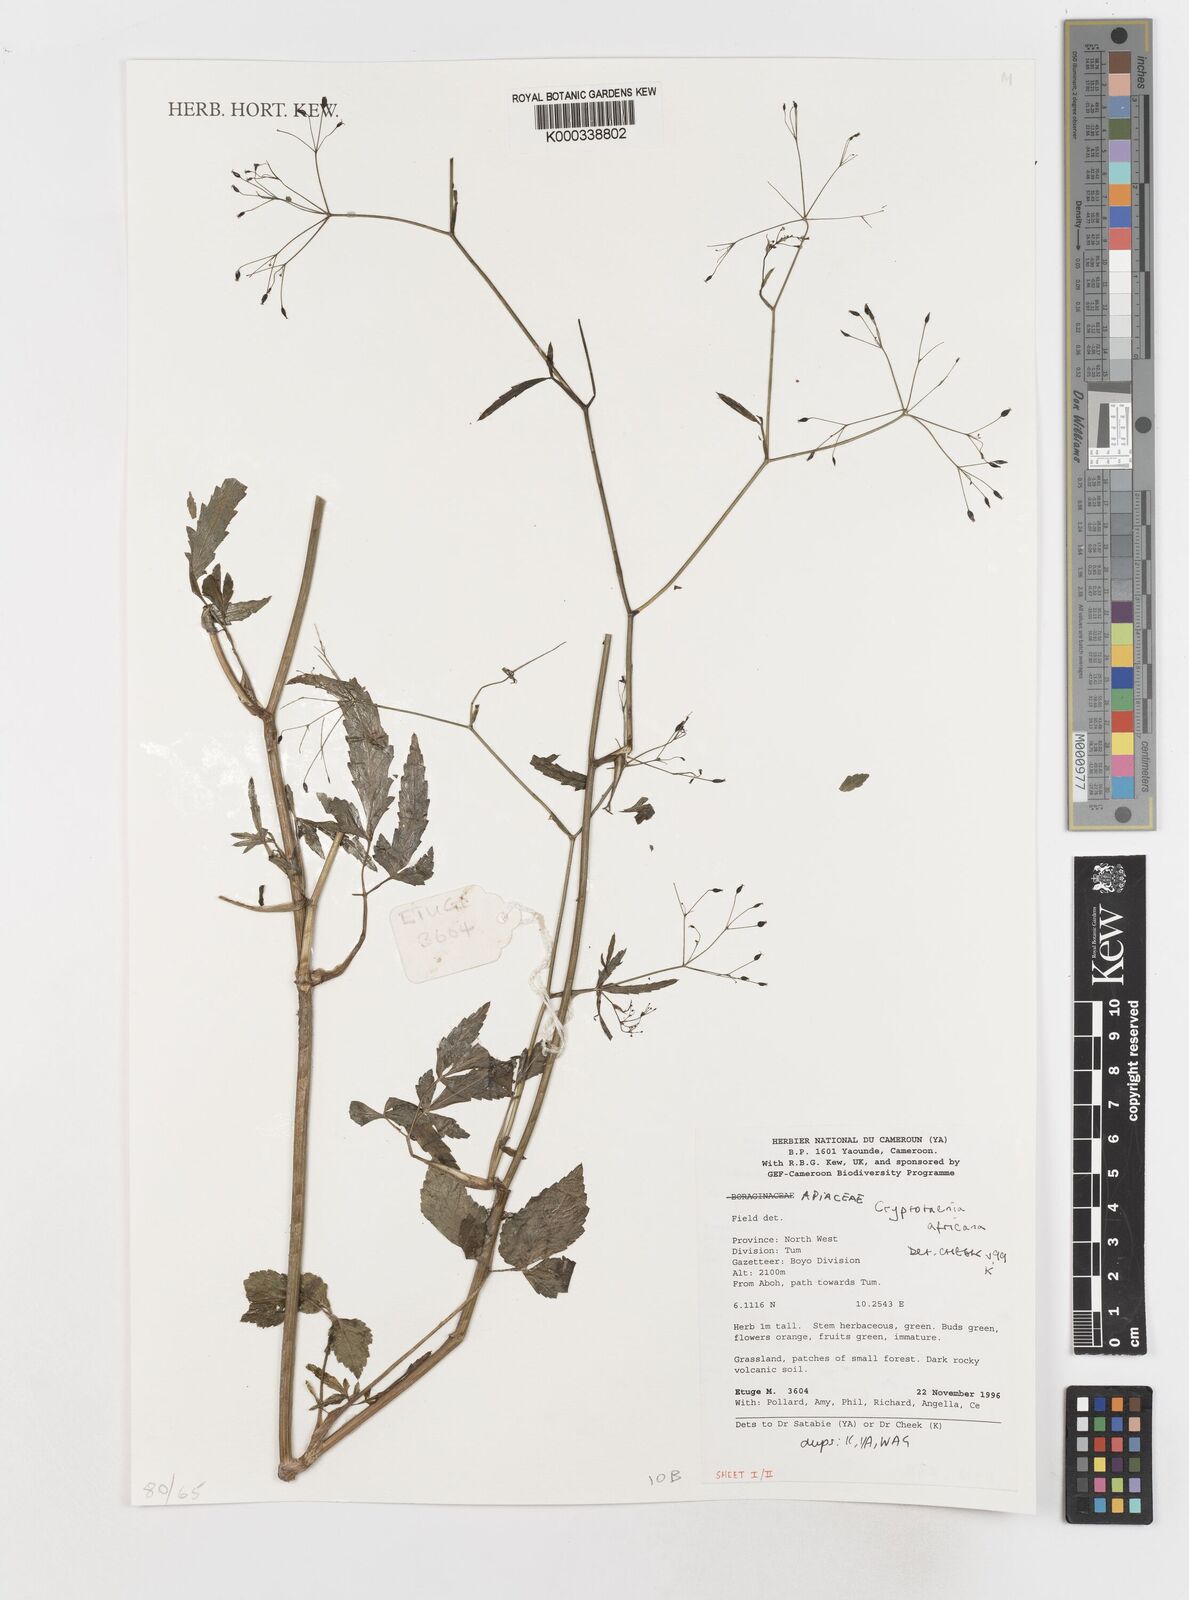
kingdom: Plantae
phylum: Tracheophyta
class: Magnoliopsida
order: Apiales
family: Apiaceae
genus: Cryptotaenia
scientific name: Cryptotaenia africana
